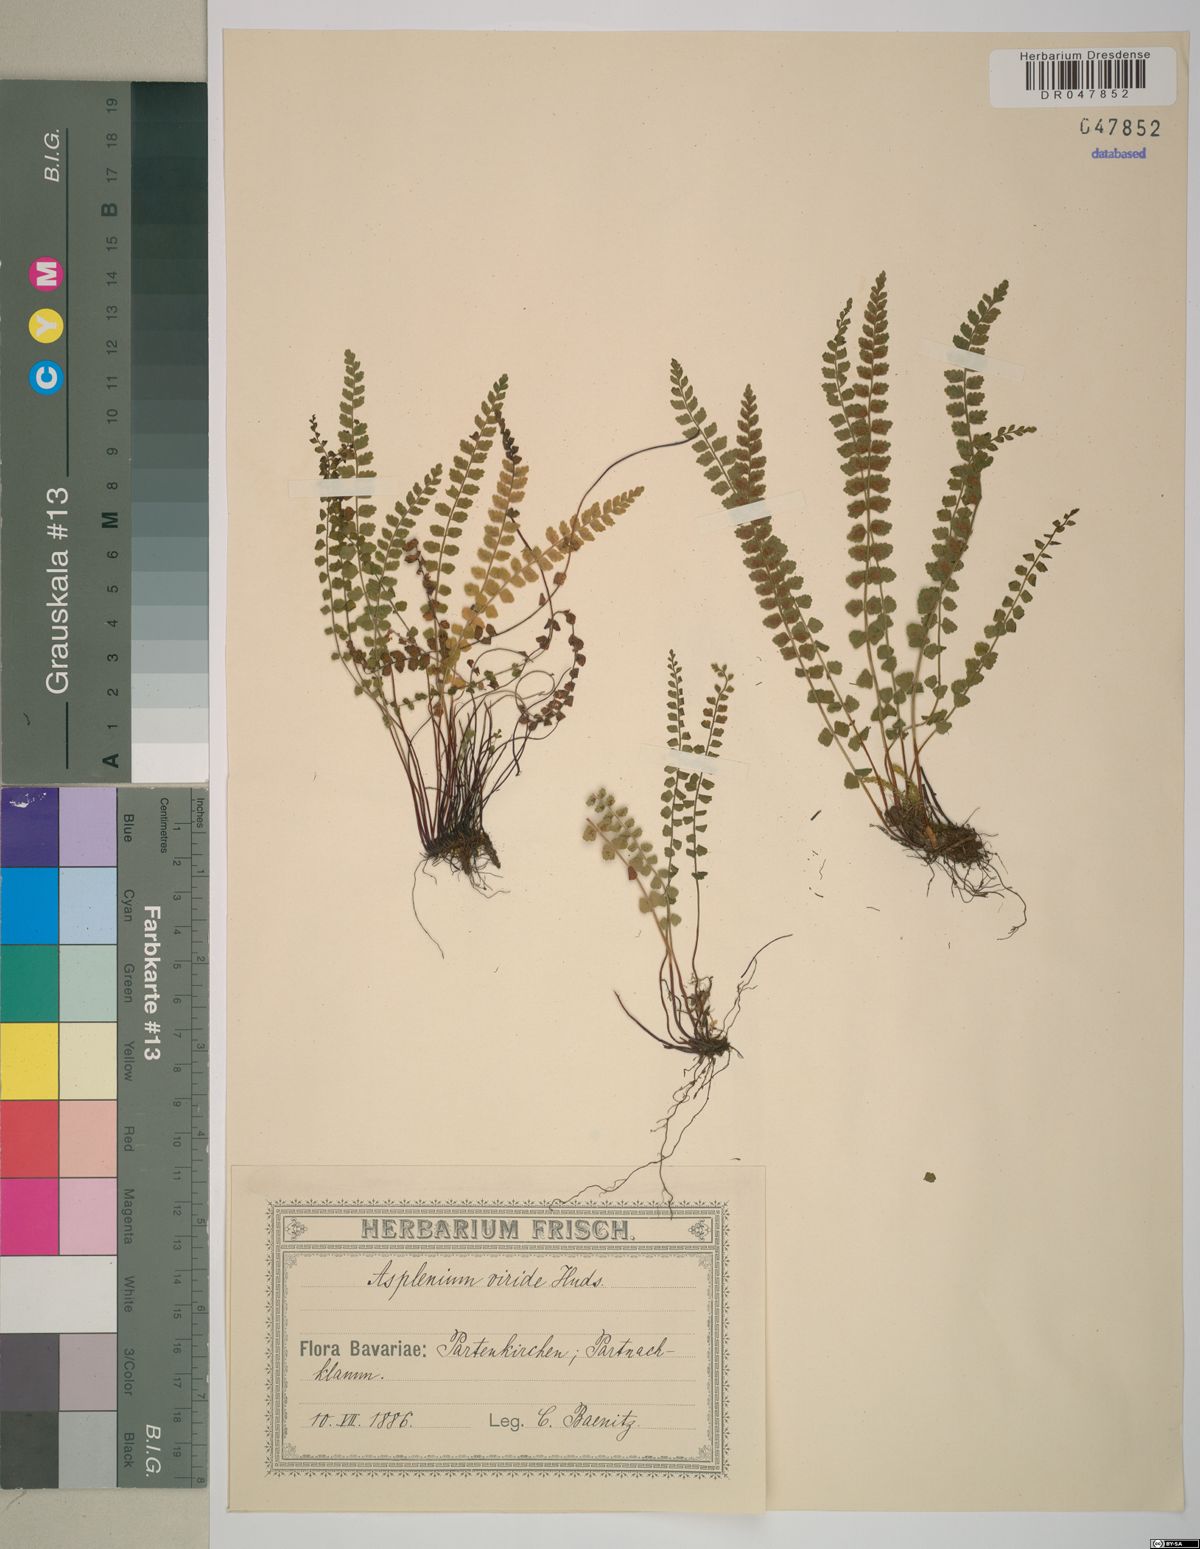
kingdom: Plantae
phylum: Tracheophyta
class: Polypodiopsida
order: Polypodiales
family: Aspleniaceae
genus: Asplenium
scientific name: Asplenium viride
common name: Green spleenwort
